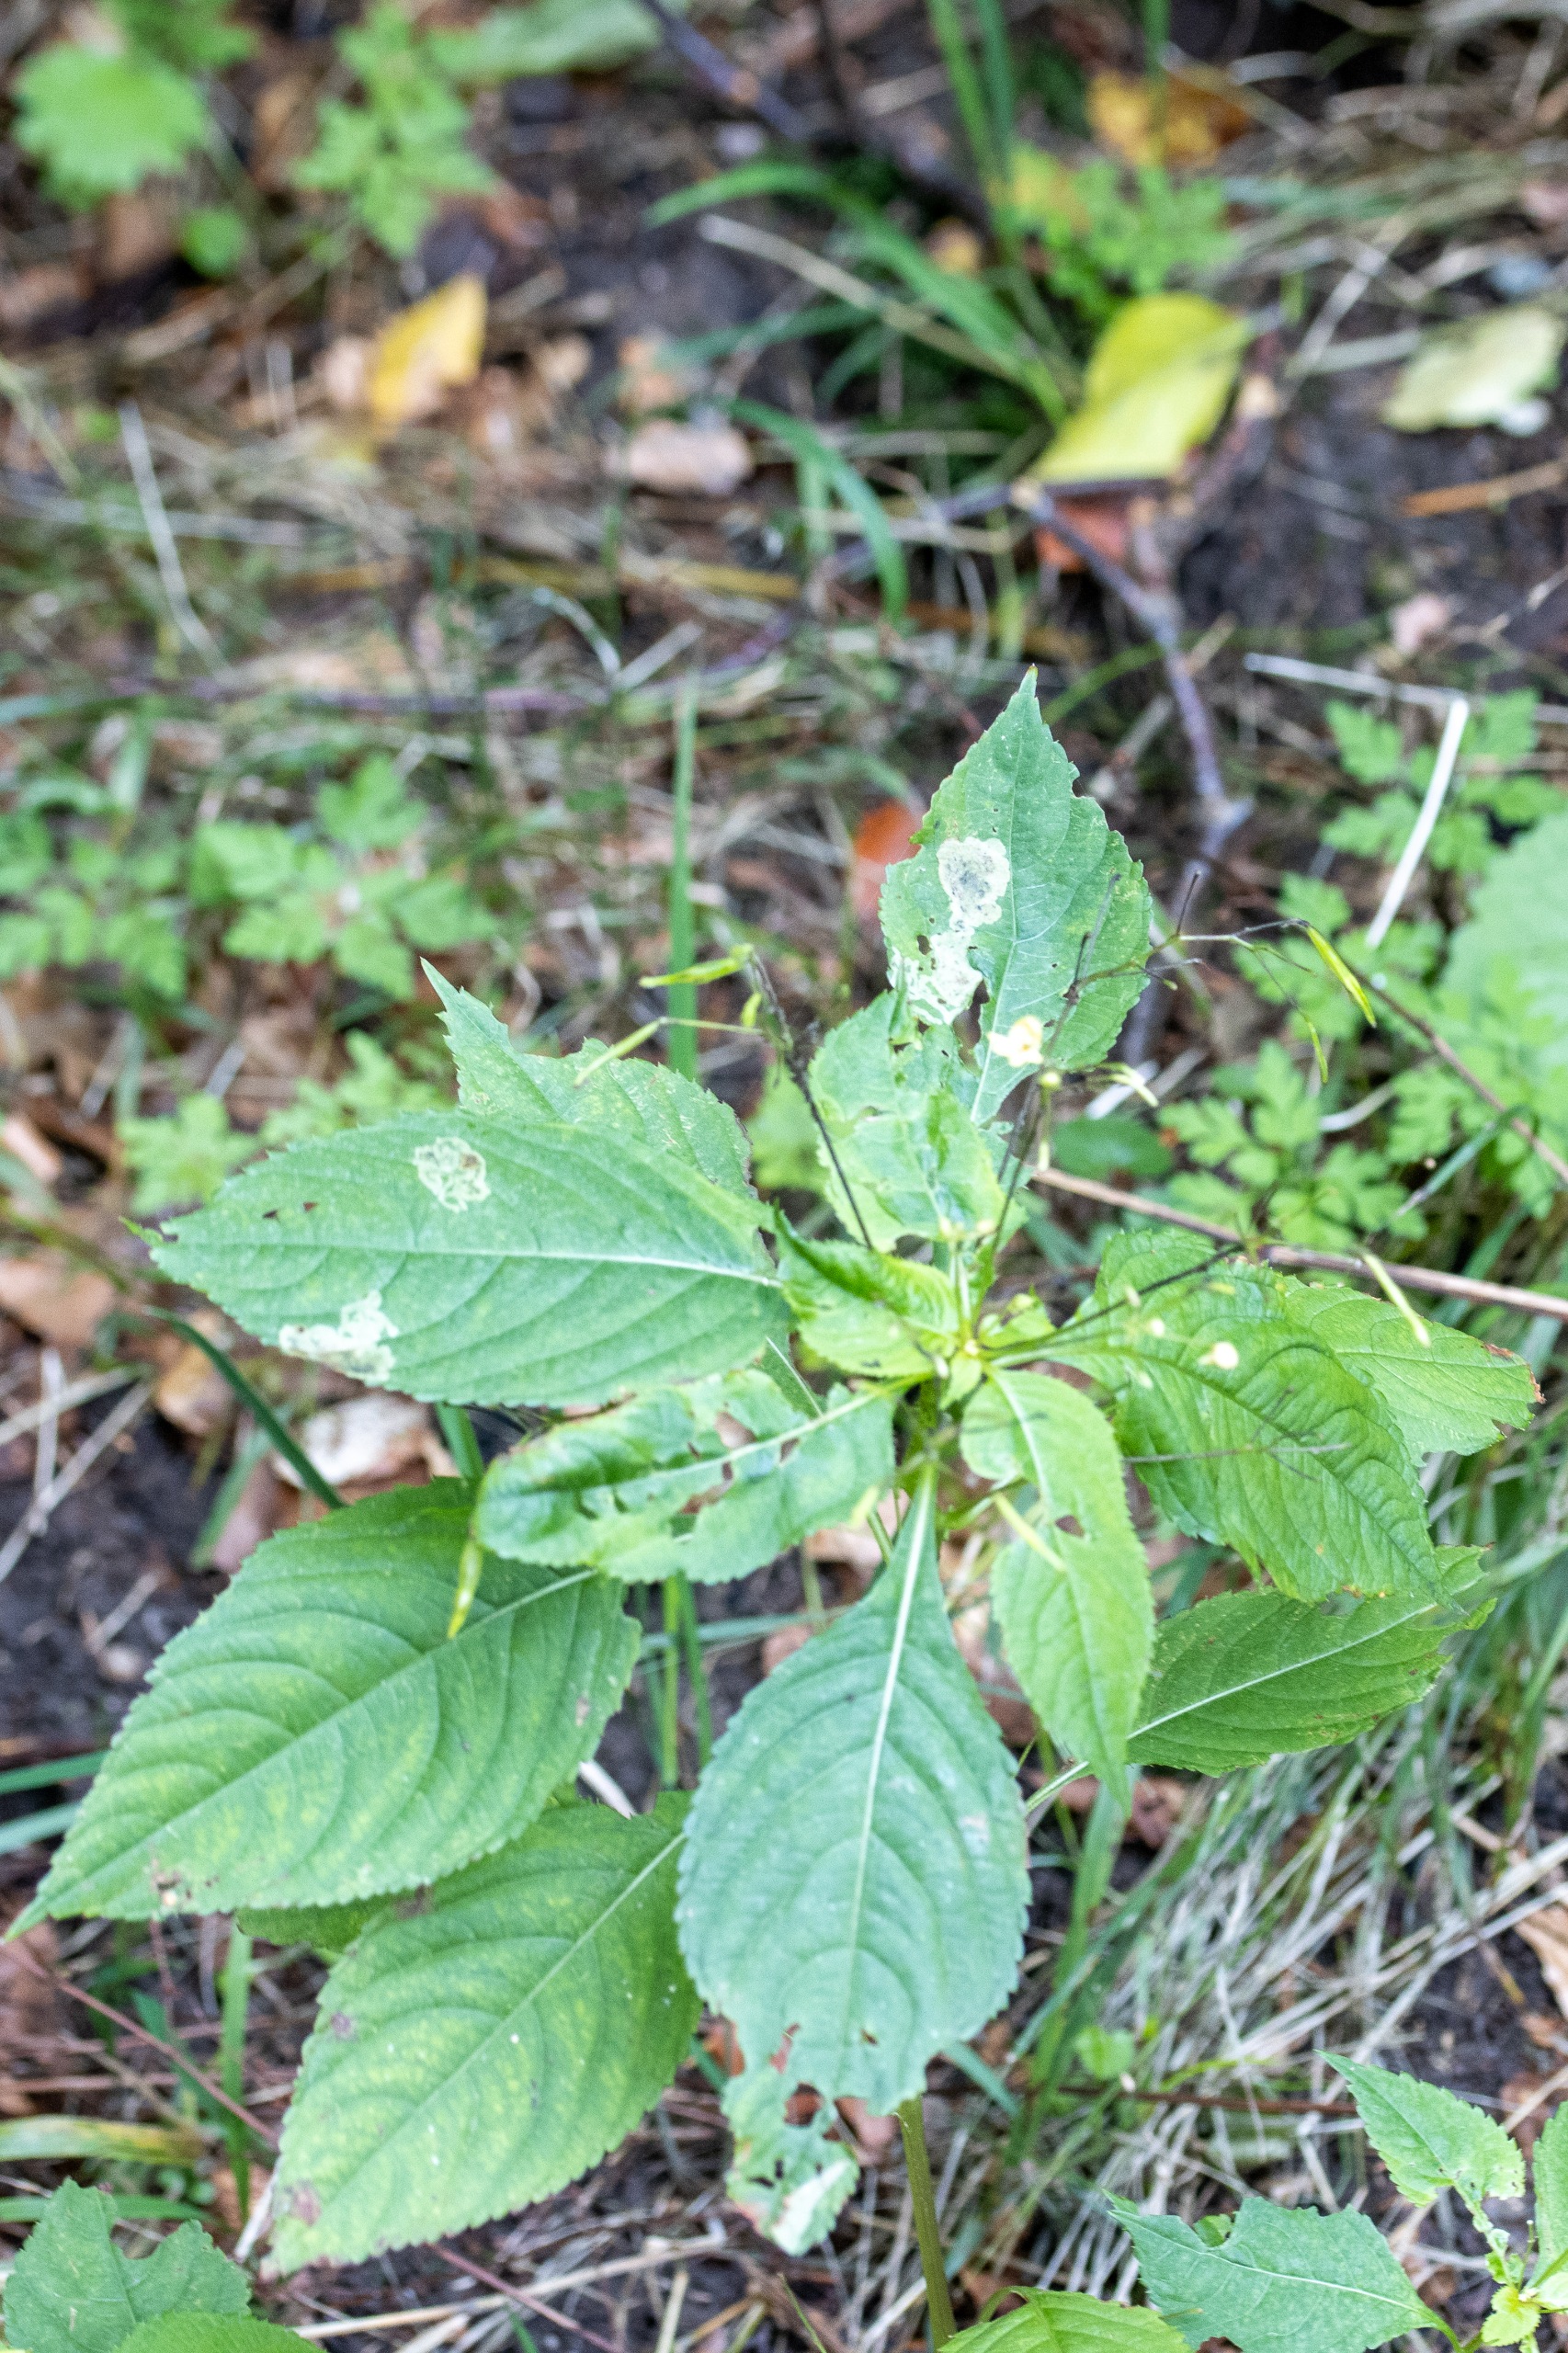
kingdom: Plantae
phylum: Tracheophyta
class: Magnoliopsida
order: Ericales
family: Balsaminaceae
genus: Impatiens
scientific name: Impatiens parviflora
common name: Småblomstret balsamin
